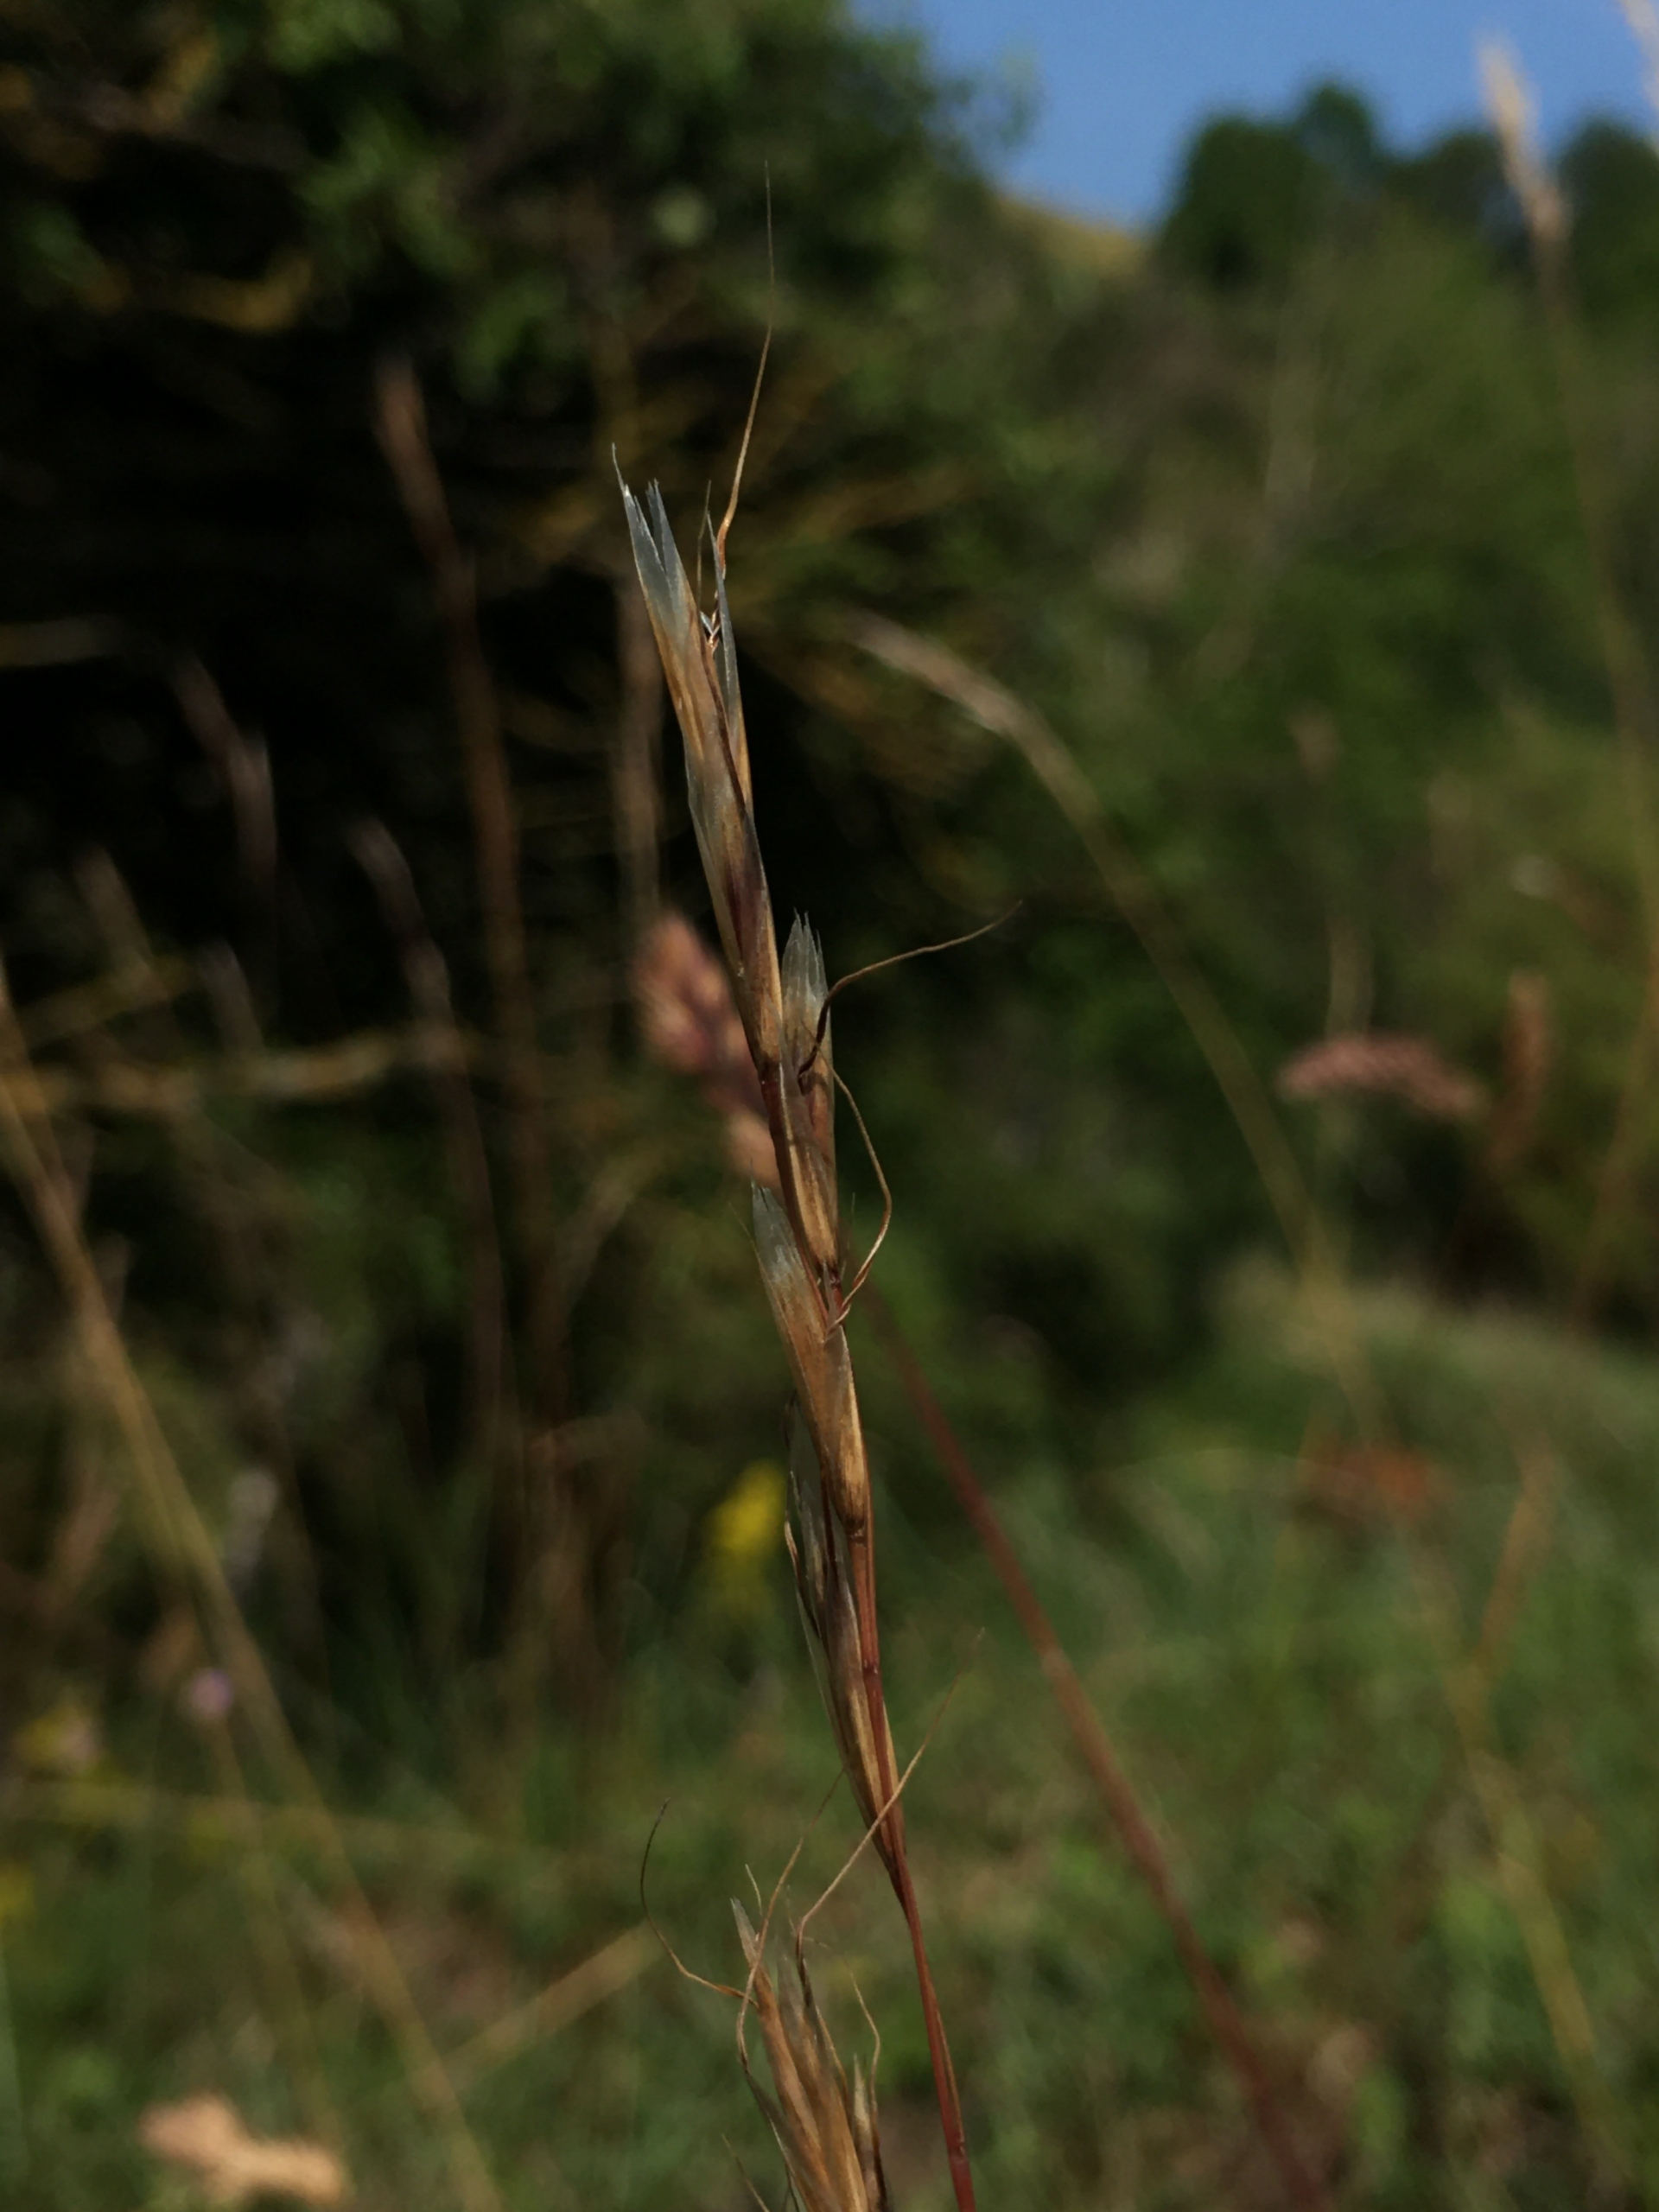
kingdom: Plantae
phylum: Tracheophyta
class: Liliopsida
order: Poales
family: Poaceae
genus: Helictochloa
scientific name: Helictochloa pratensis
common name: Eng-havre
